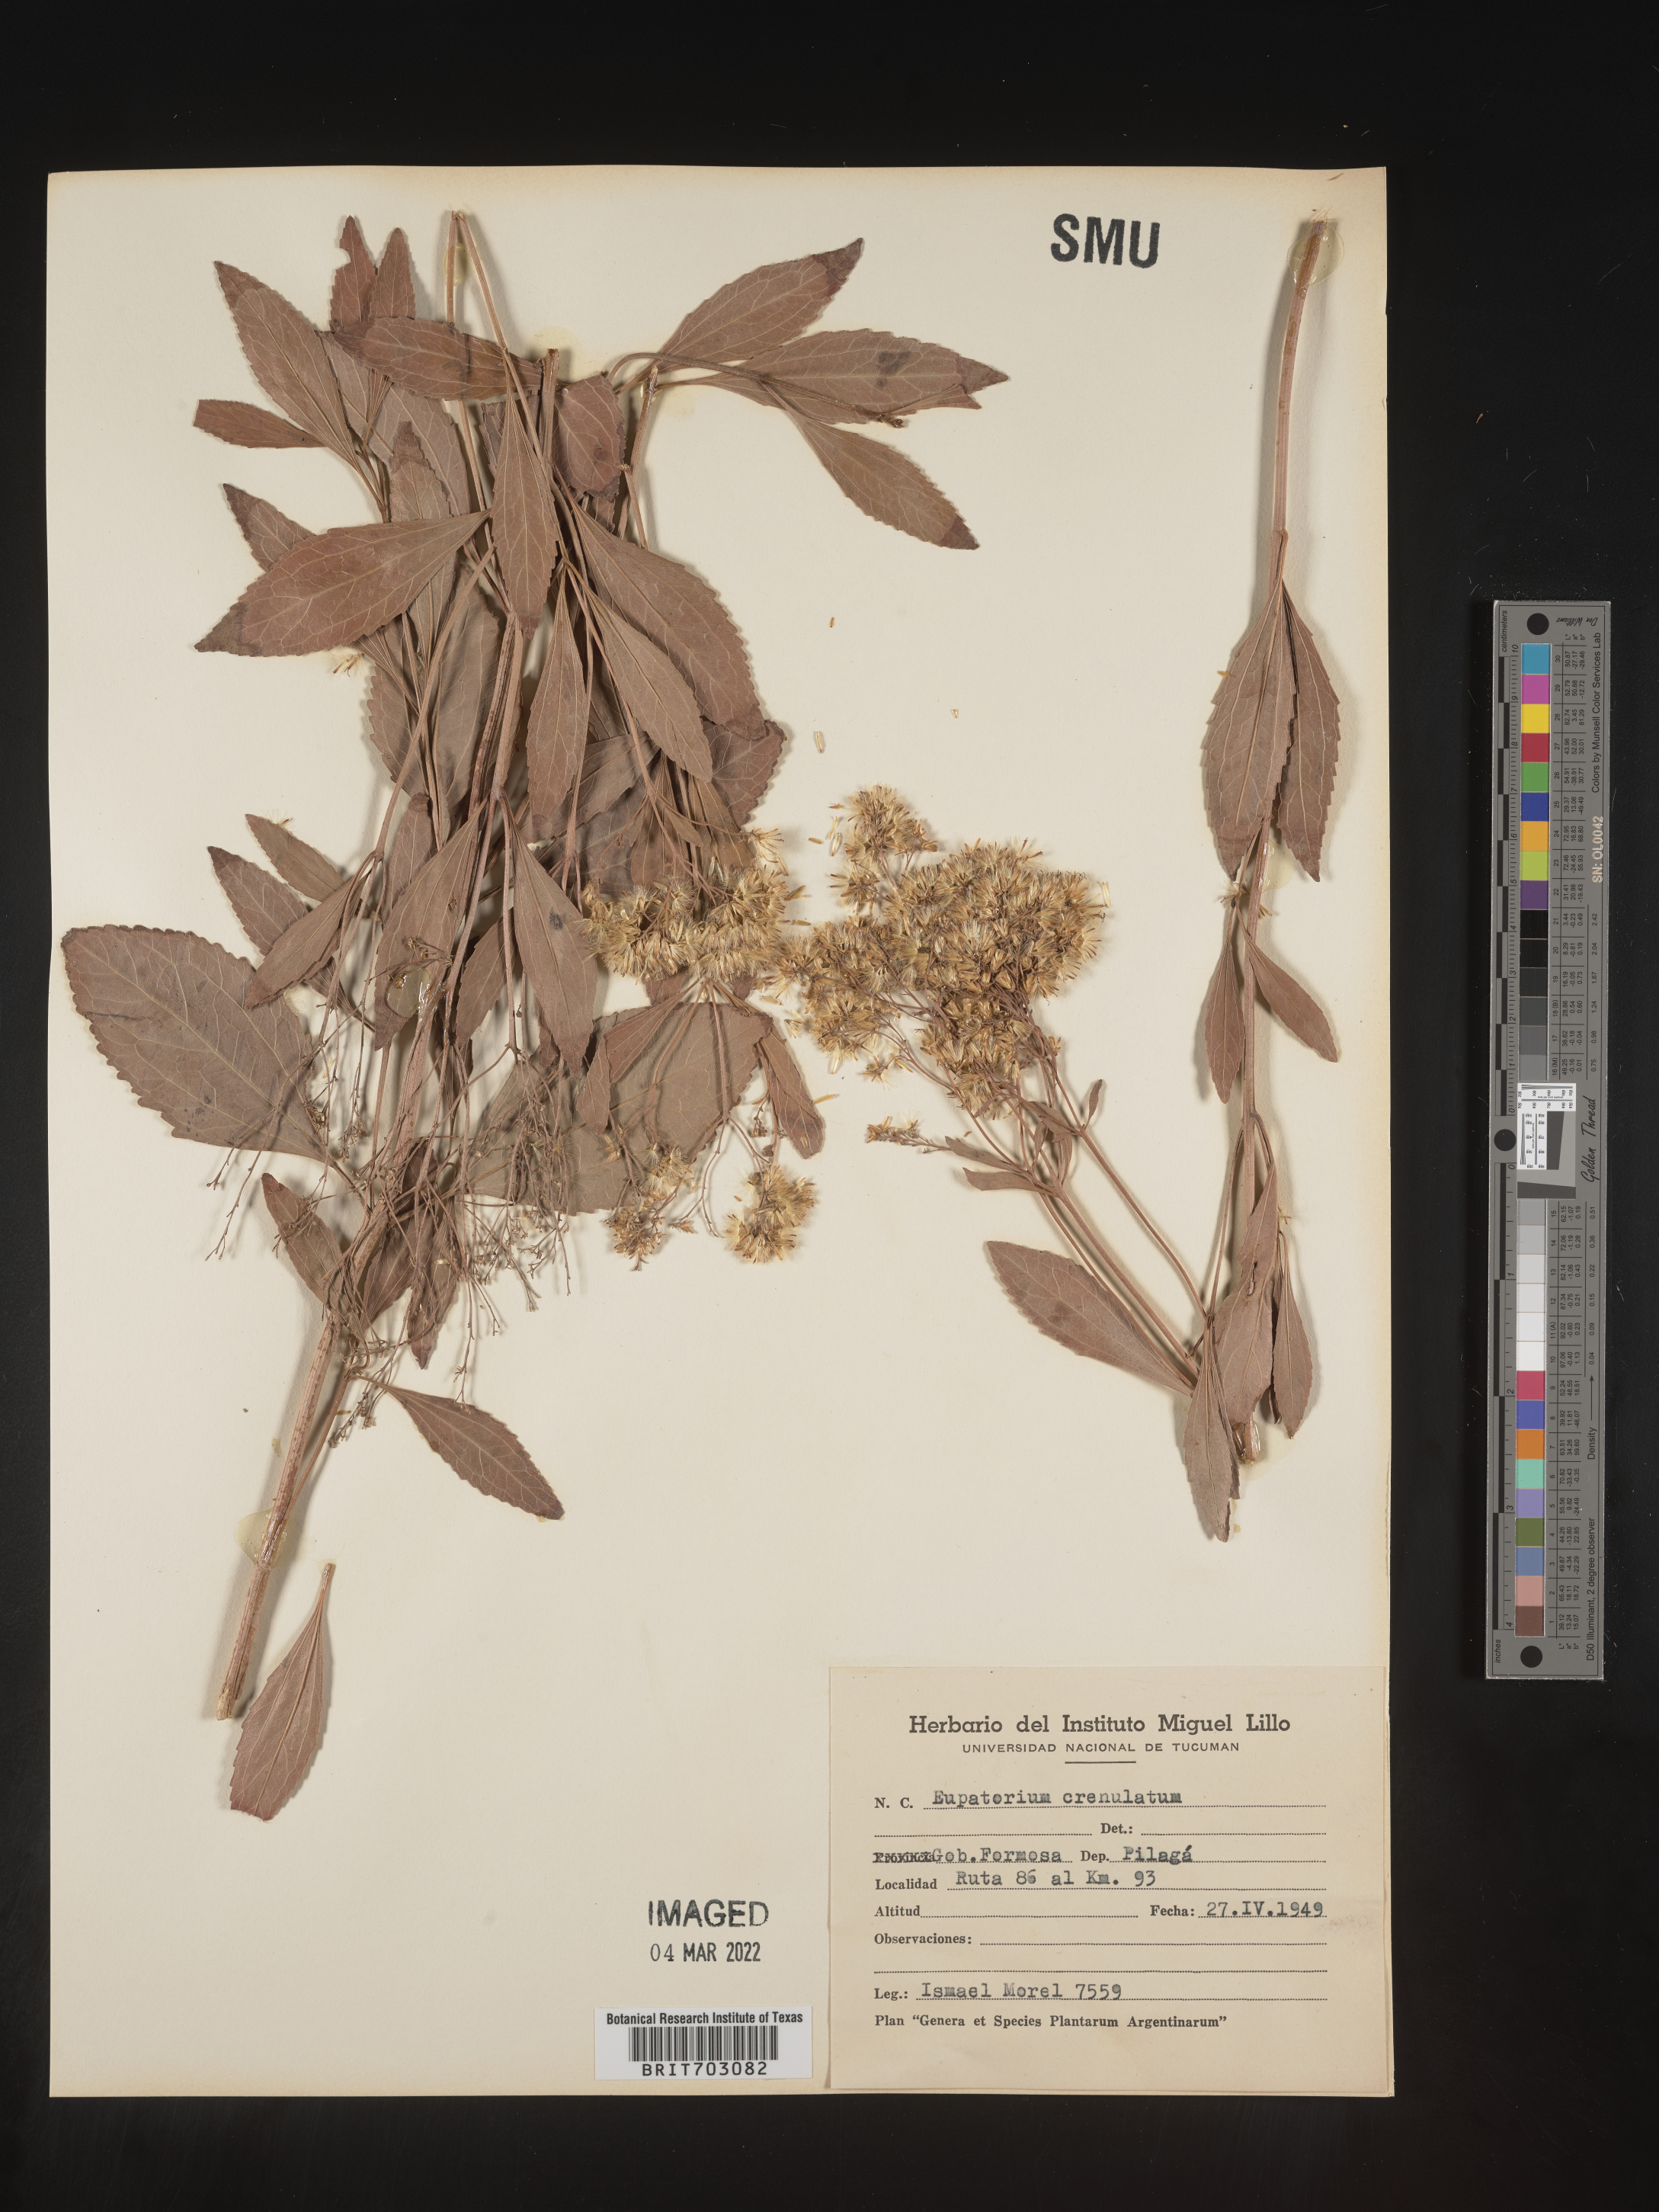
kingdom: Plantae
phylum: Tracheophyta
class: Magnoliopsida
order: Asterales
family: Asteraceae
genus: Eupatorium
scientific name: Eupatorium
